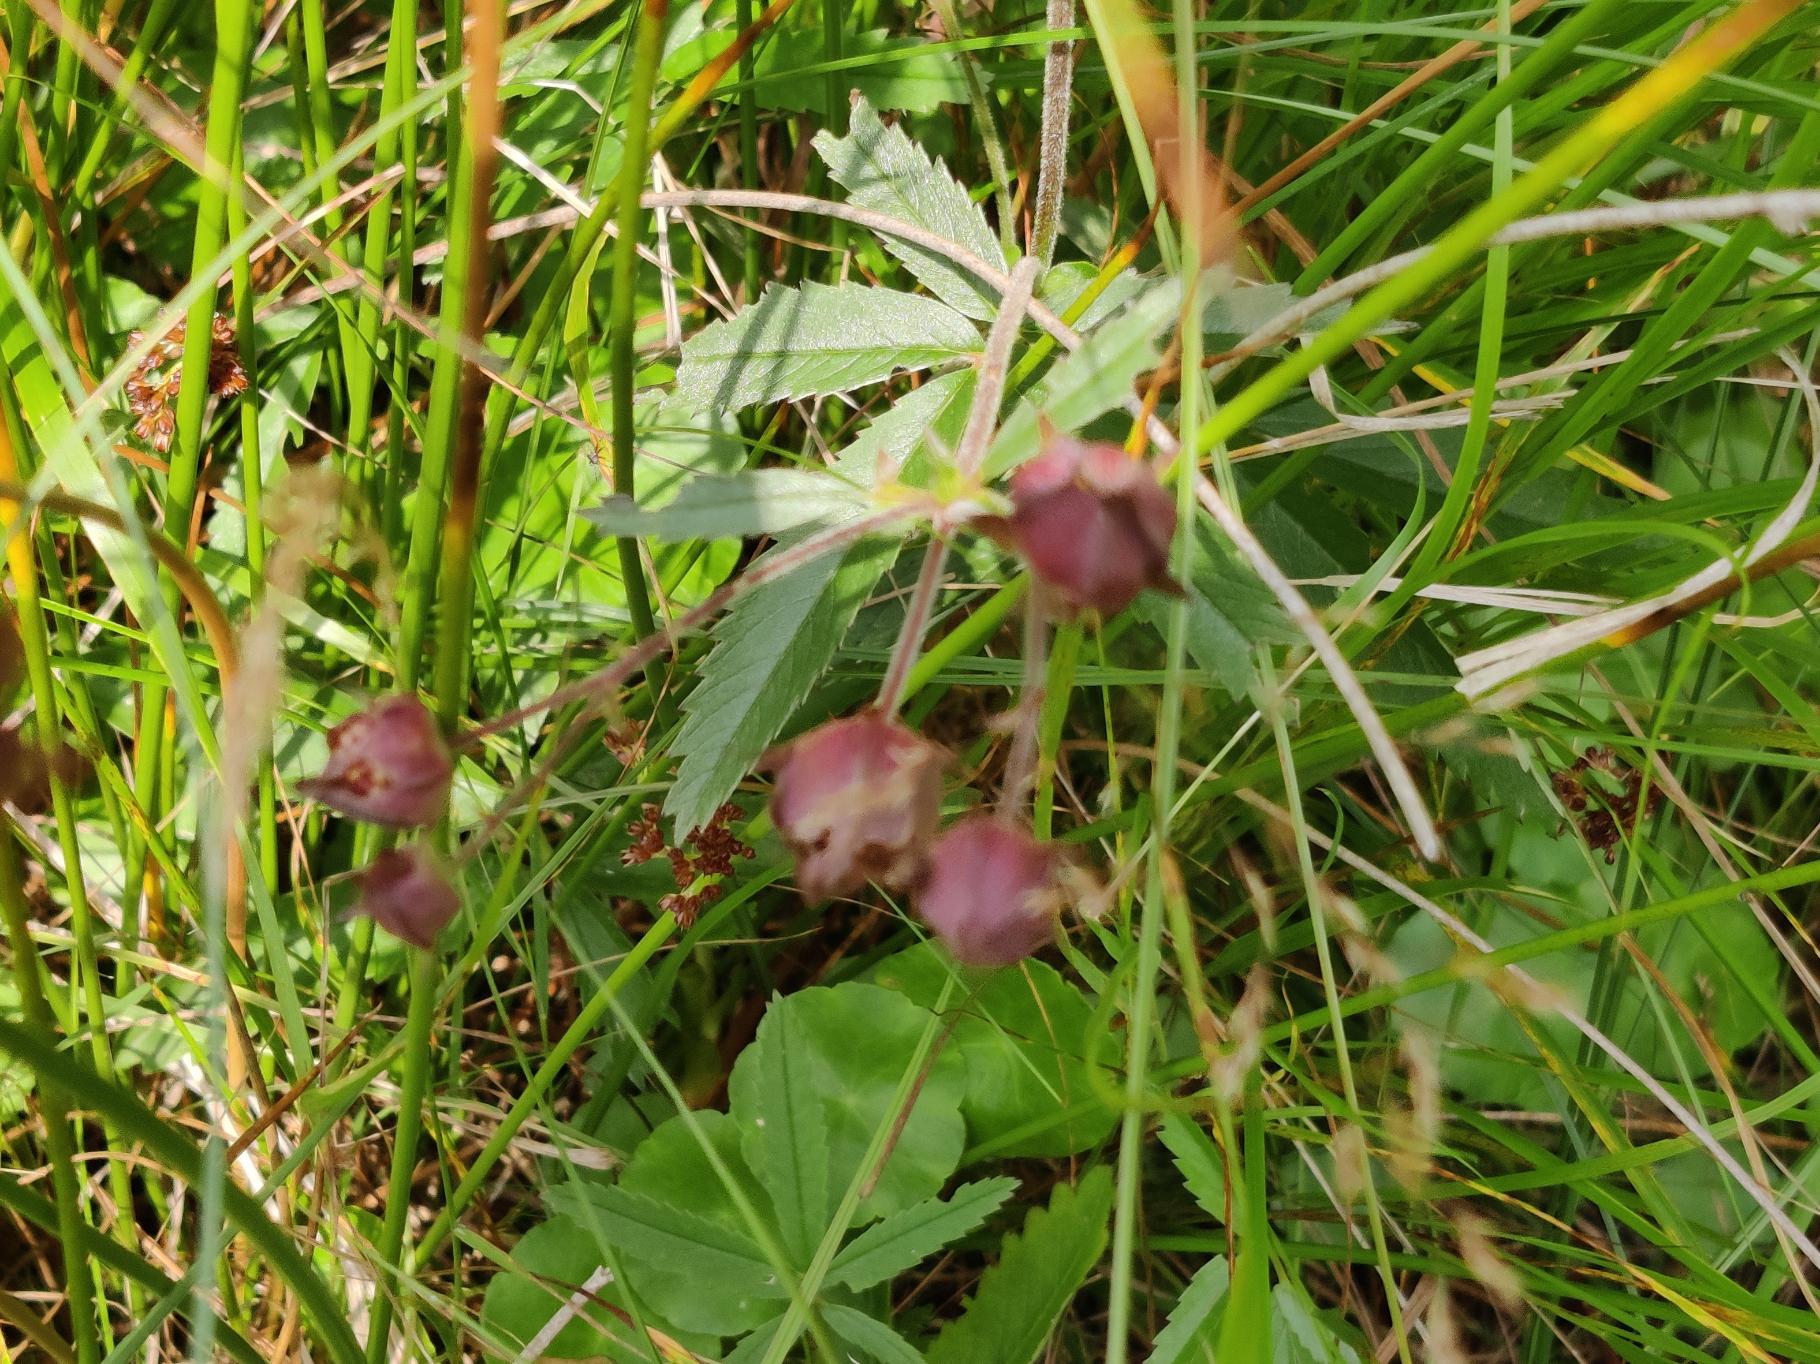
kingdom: Plantae
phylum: Tracheophyta
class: Magnoliopsida
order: Rosales
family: Rosaceae
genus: Comarum
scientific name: Comarum palustre
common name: Kragefod
